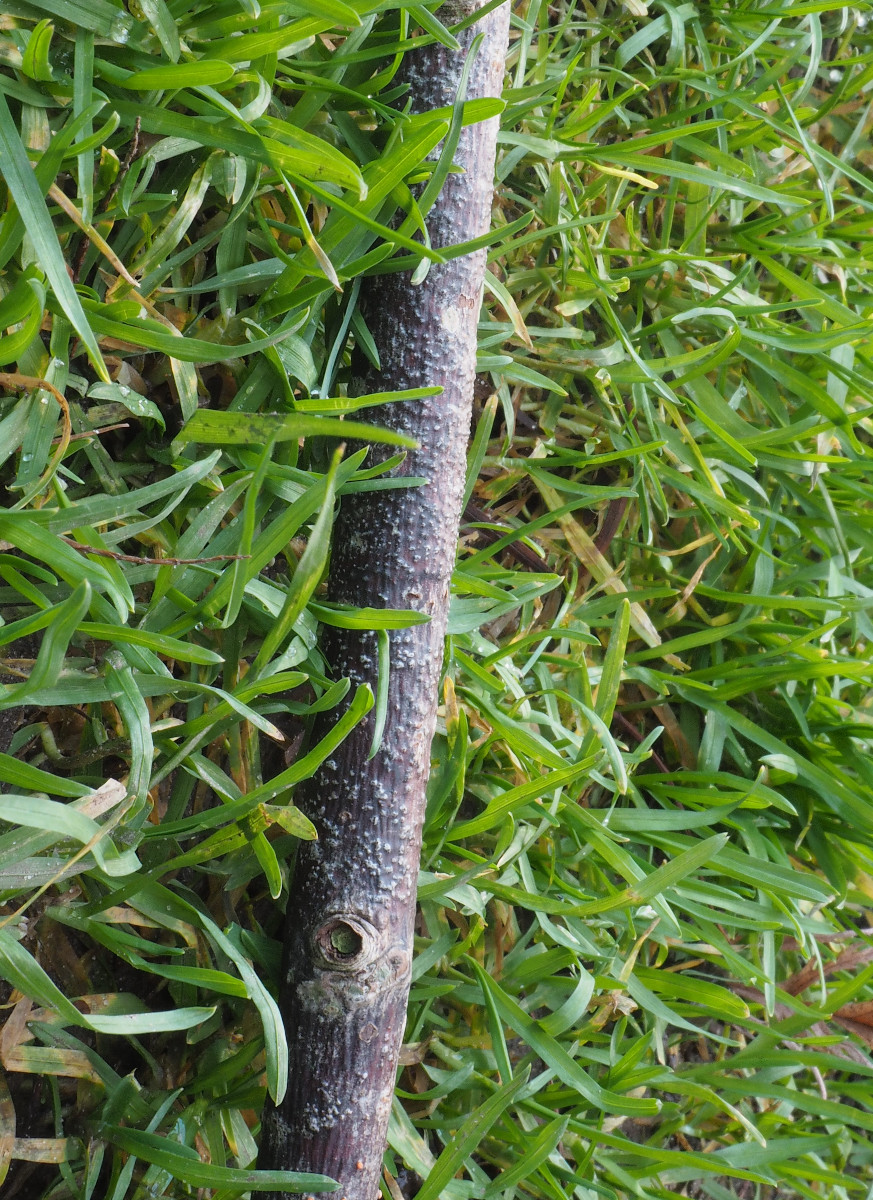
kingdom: Fungi
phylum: Ascomycota
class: Sordariomycetes
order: Hypocreales
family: Nectriaceae
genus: Nectria
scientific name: Nectria cinnabarina
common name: almindelig cinnobersvamp
